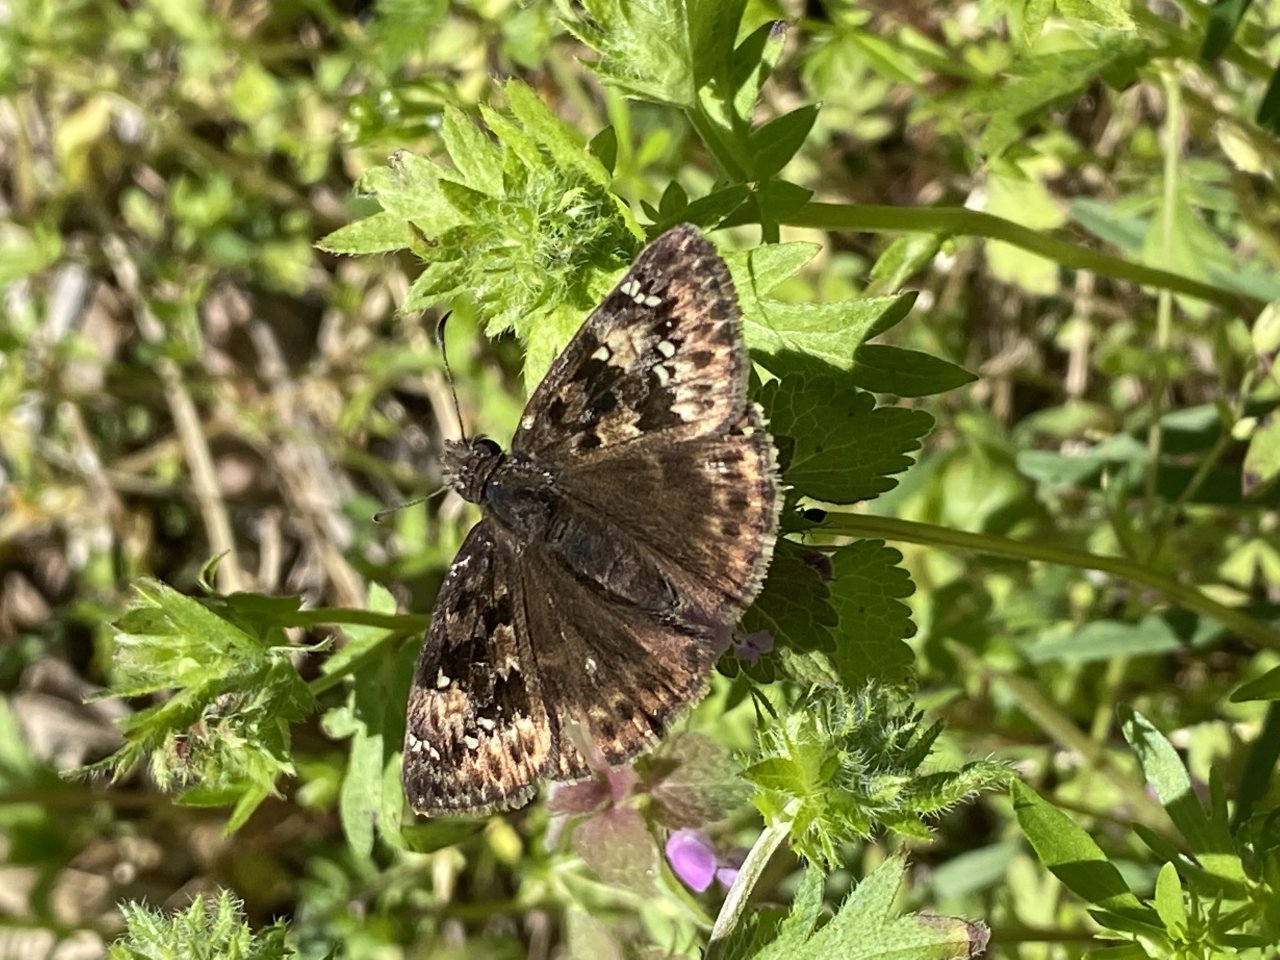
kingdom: Animalia
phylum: Arthropoda
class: Insecta
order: Lepidoptera
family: Hesperiidae
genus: Erynnis
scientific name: Erynnis
